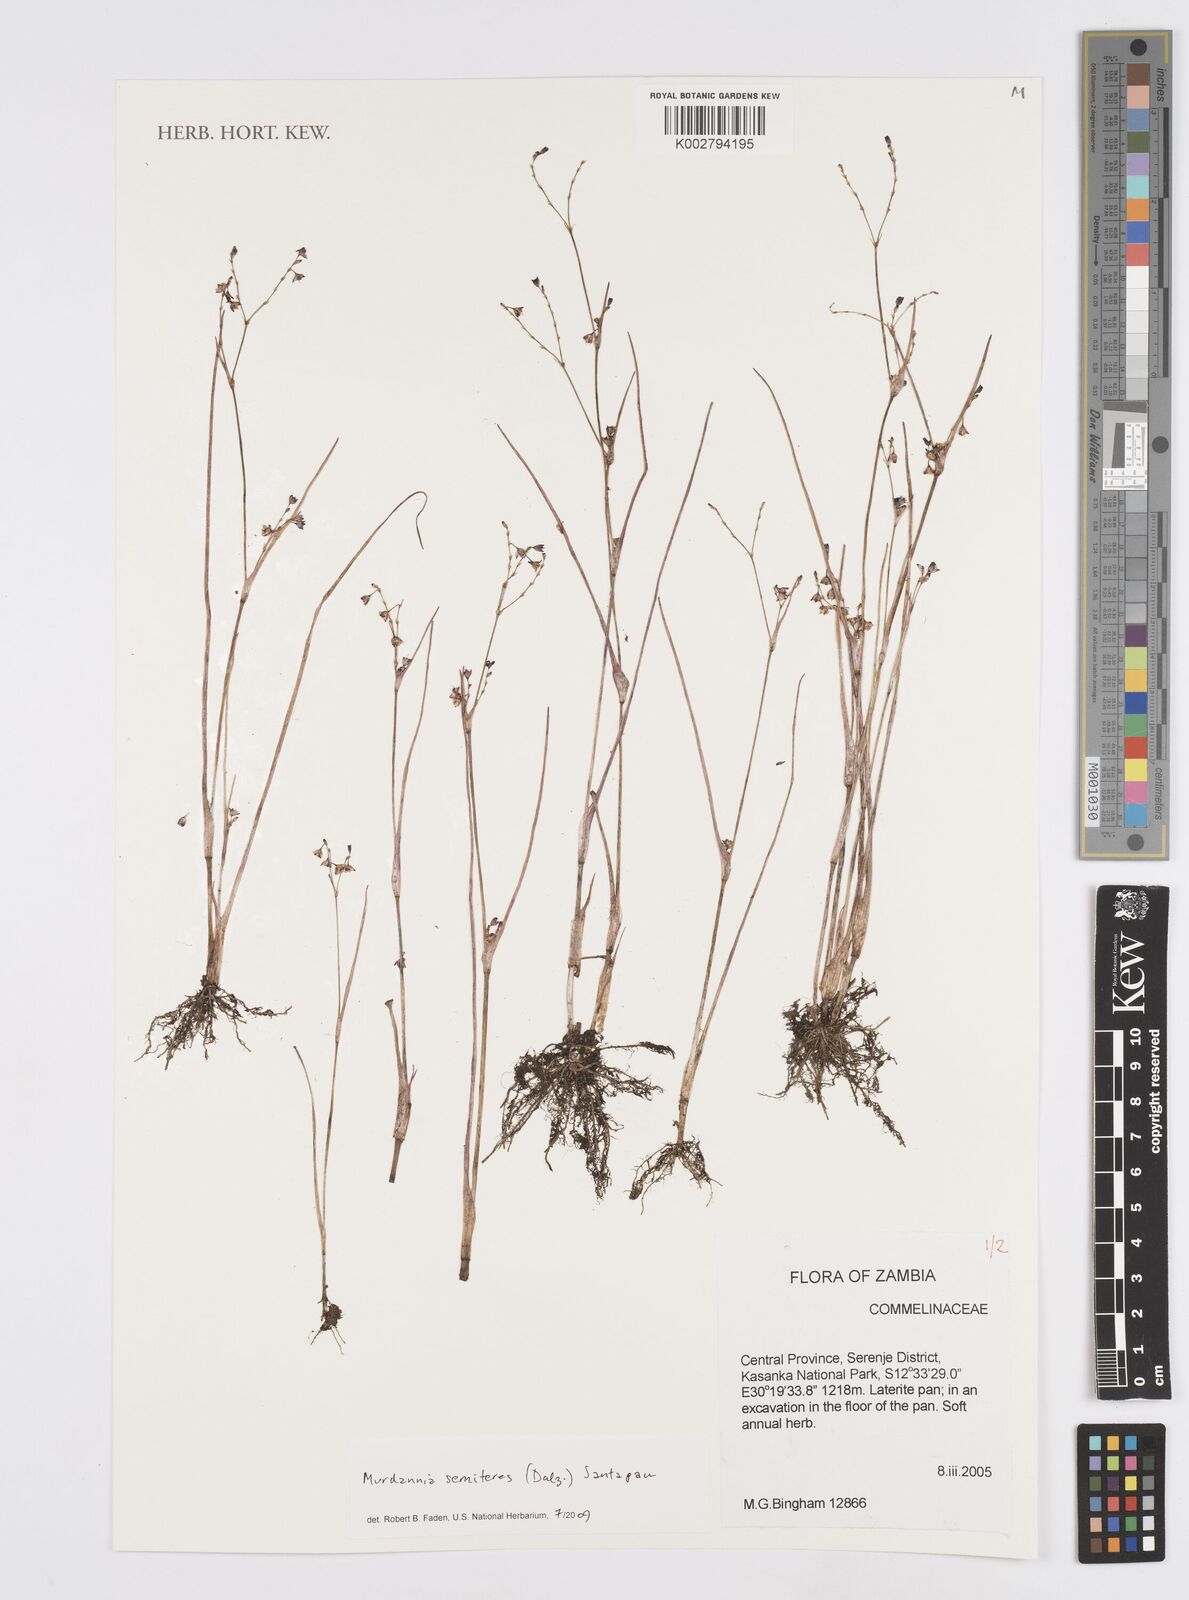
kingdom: Plantae
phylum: Tracheophyta
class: Liliopsida
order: Commelinales
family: Commelinaceae
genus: Murdannia
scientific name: Murdannia semiteres
